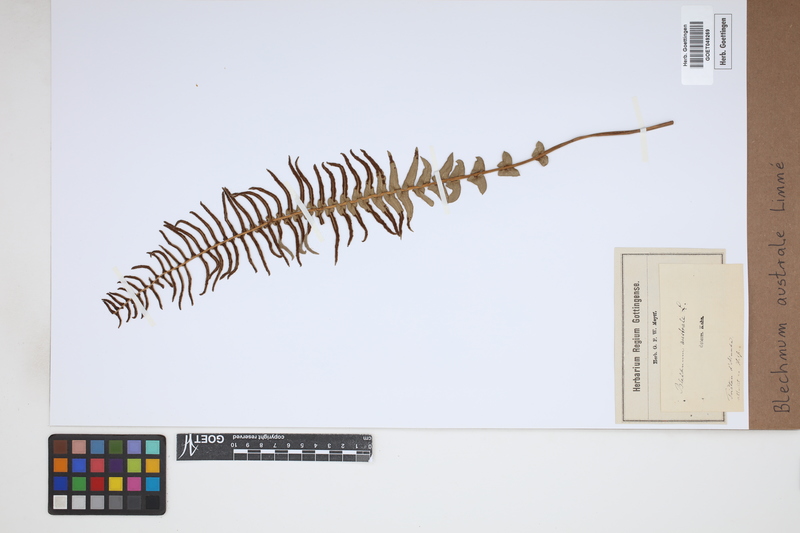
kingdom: Plantae
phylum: Tracheophyta
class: Polypodiopsida
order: Polypodiales
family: Blechnaceae
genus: Blechnum
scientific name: Blechnum australe
